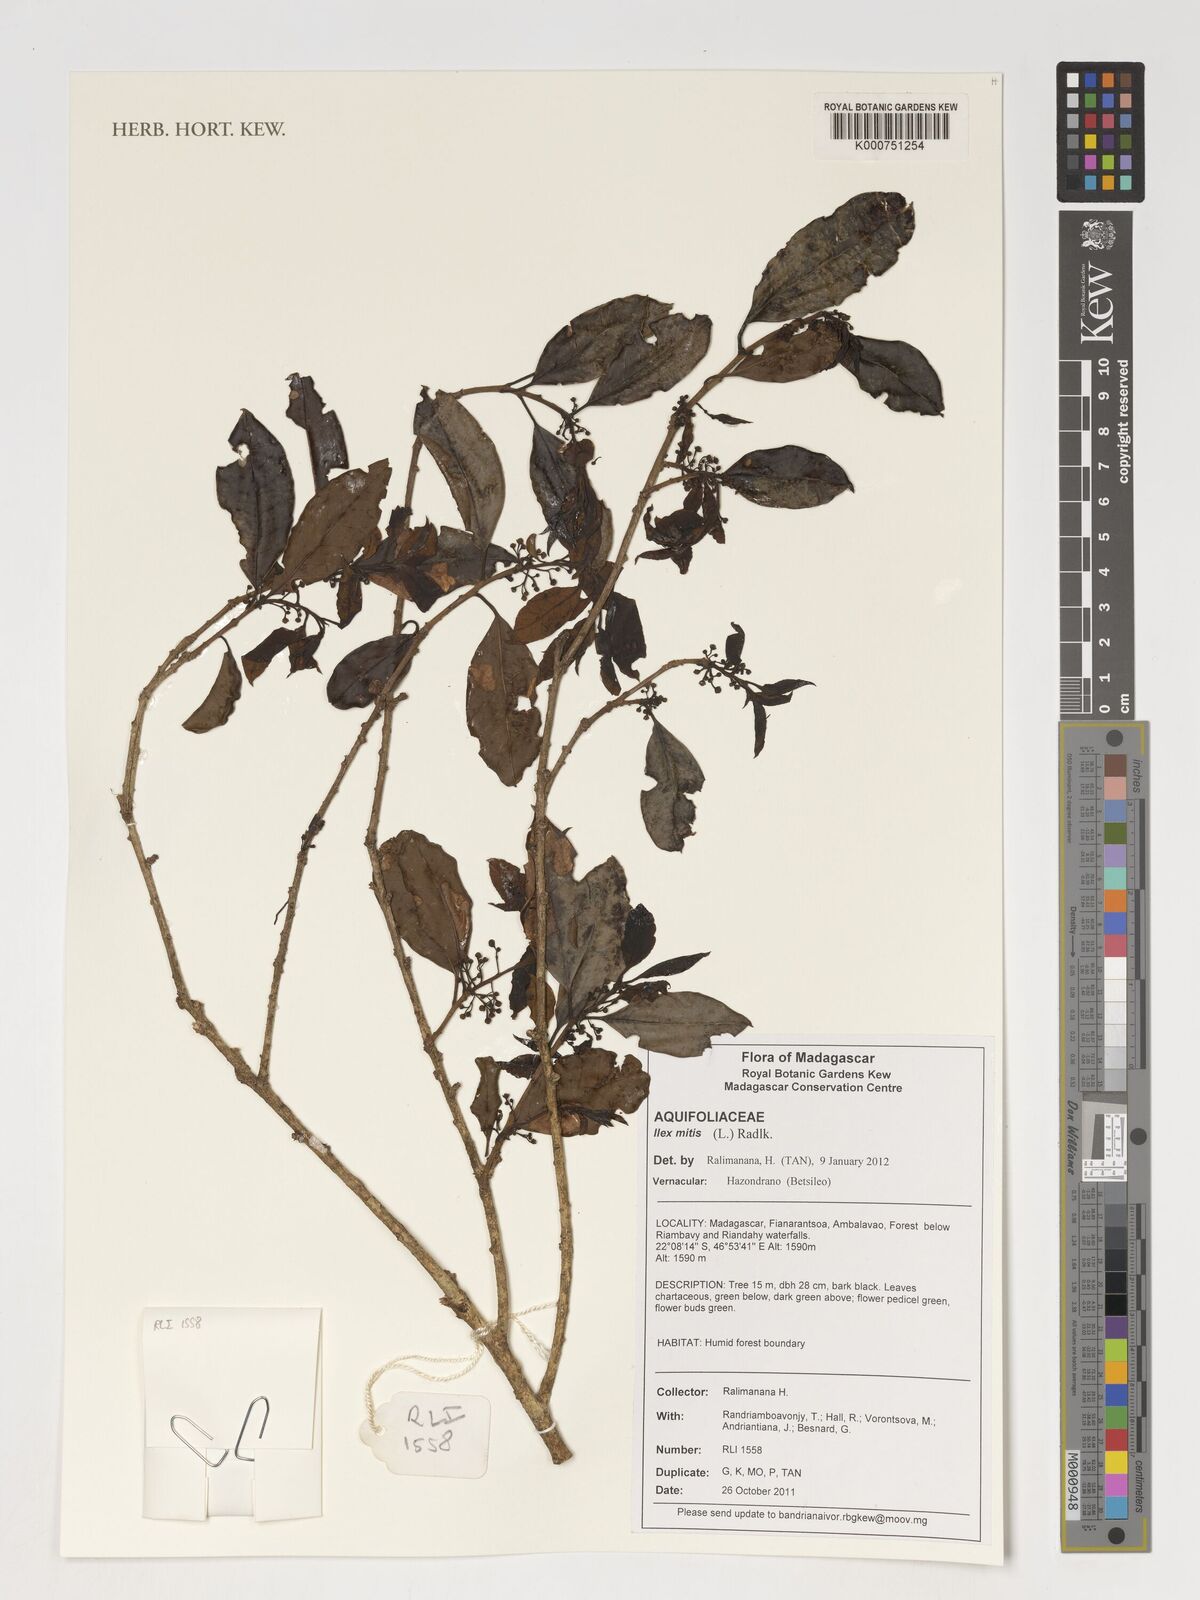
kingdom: Plantae
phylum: Tracheophyta
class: Magnoliopsida
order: Aquifoliales
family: Aquifoliaceae
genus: Ilex
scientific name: Ilex mitis
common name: African holly
